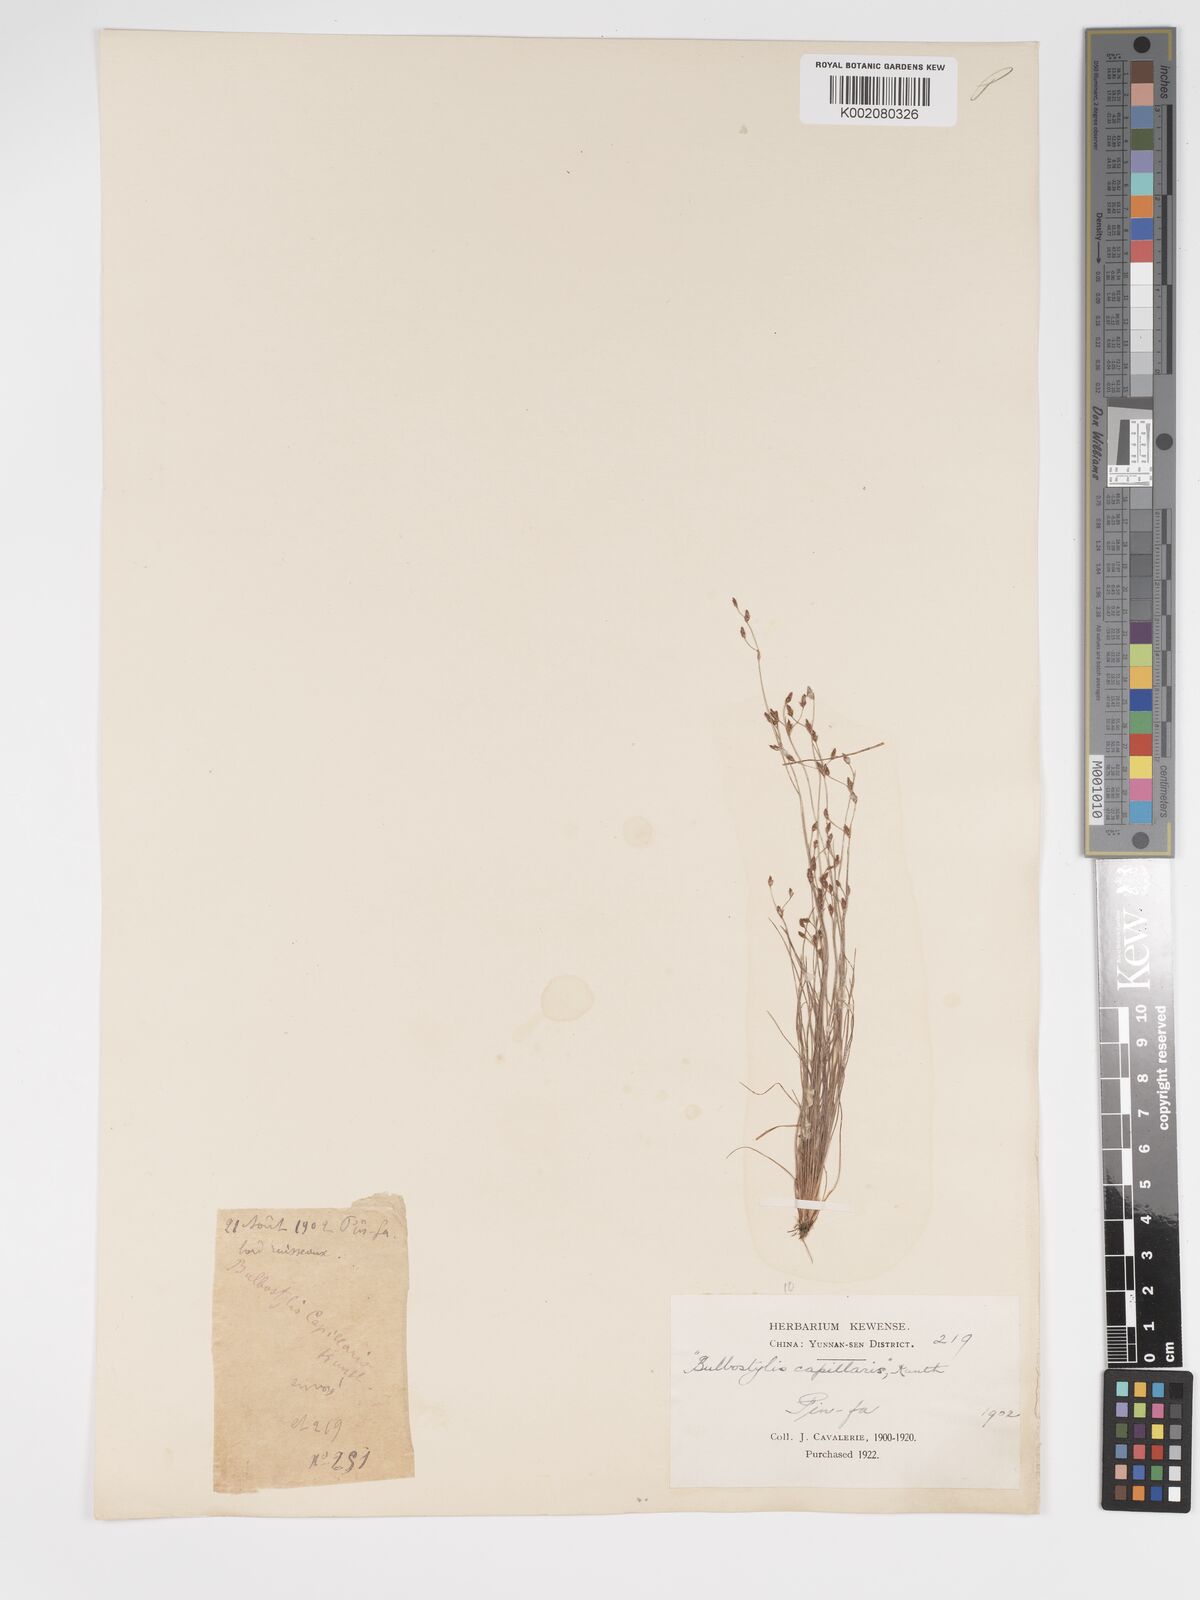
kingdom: Plantae
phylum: Tracheophyta
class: Liliopsida
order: Poales
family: Cyperaceae
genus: Bulbostylis
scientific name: Bulbostylis capillaris
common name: Densetuft hairsedge
